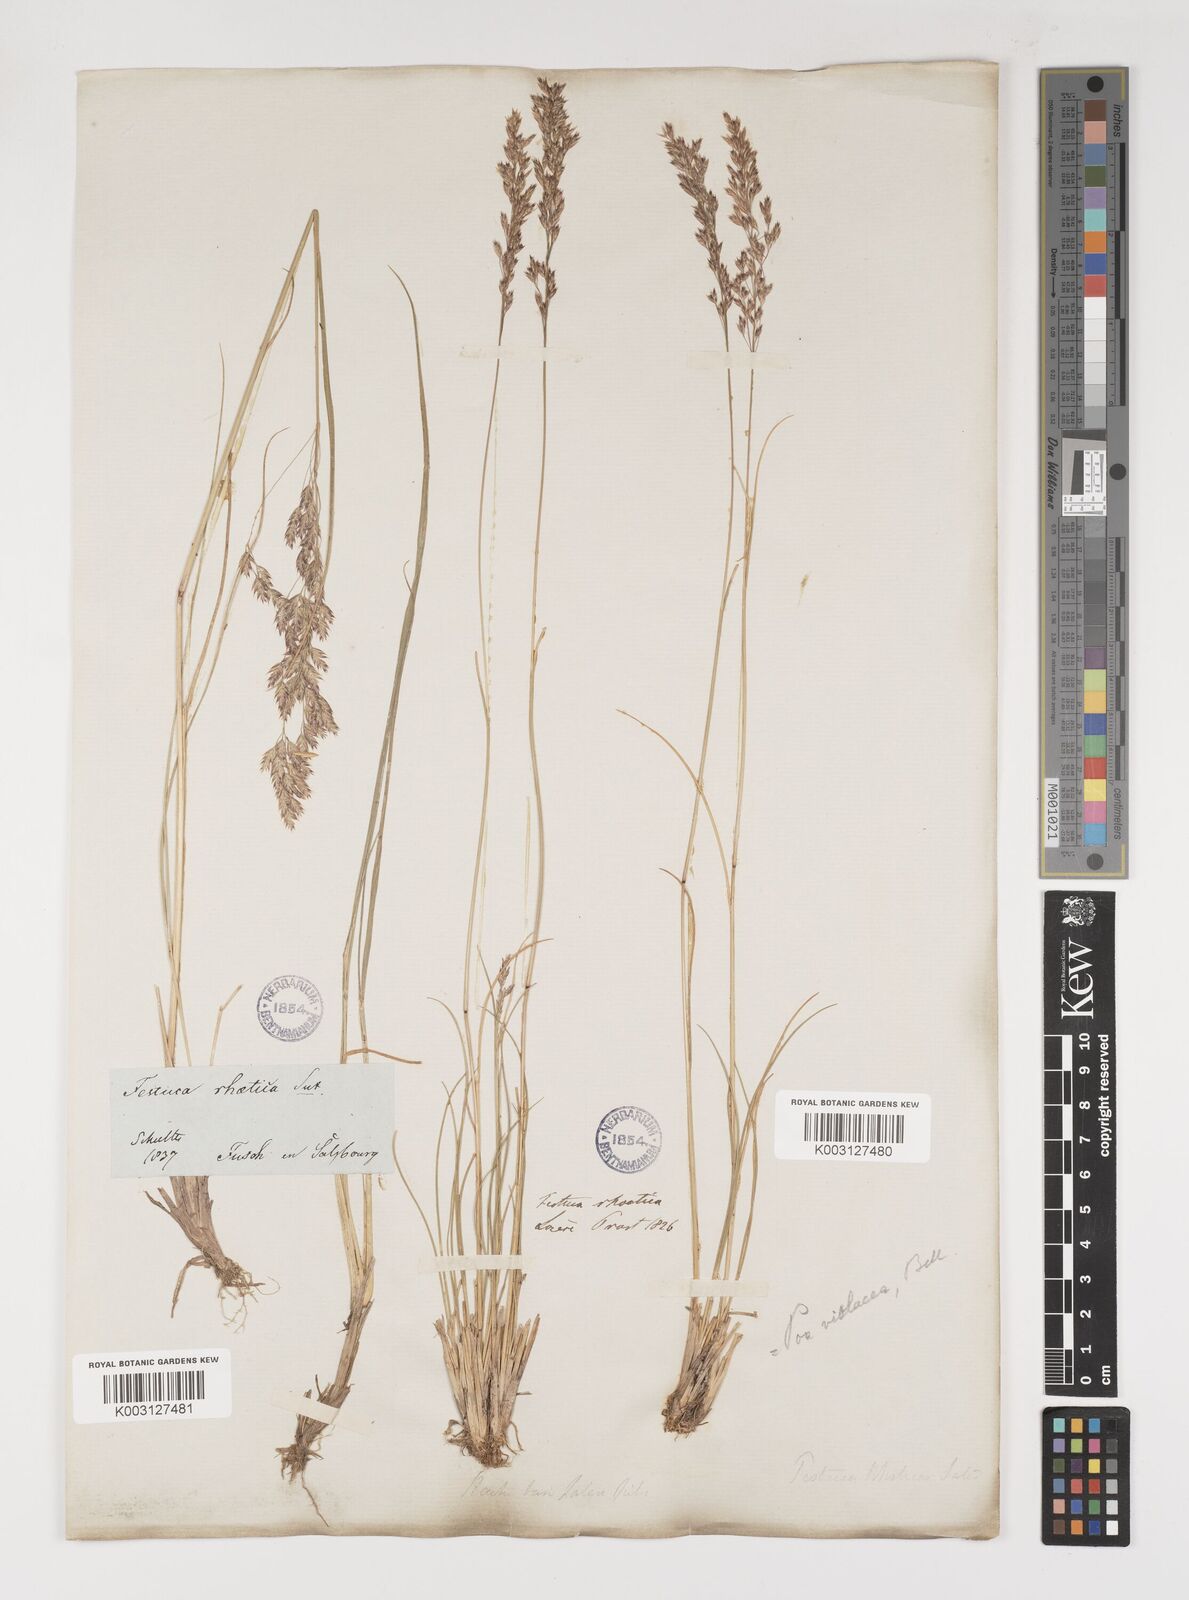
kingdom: Plantae
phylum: Tracheophyta
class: Liliopsida
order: Poales
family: Poaceae
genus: Bellardiochloa
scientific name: Bellardiochloa variegata
